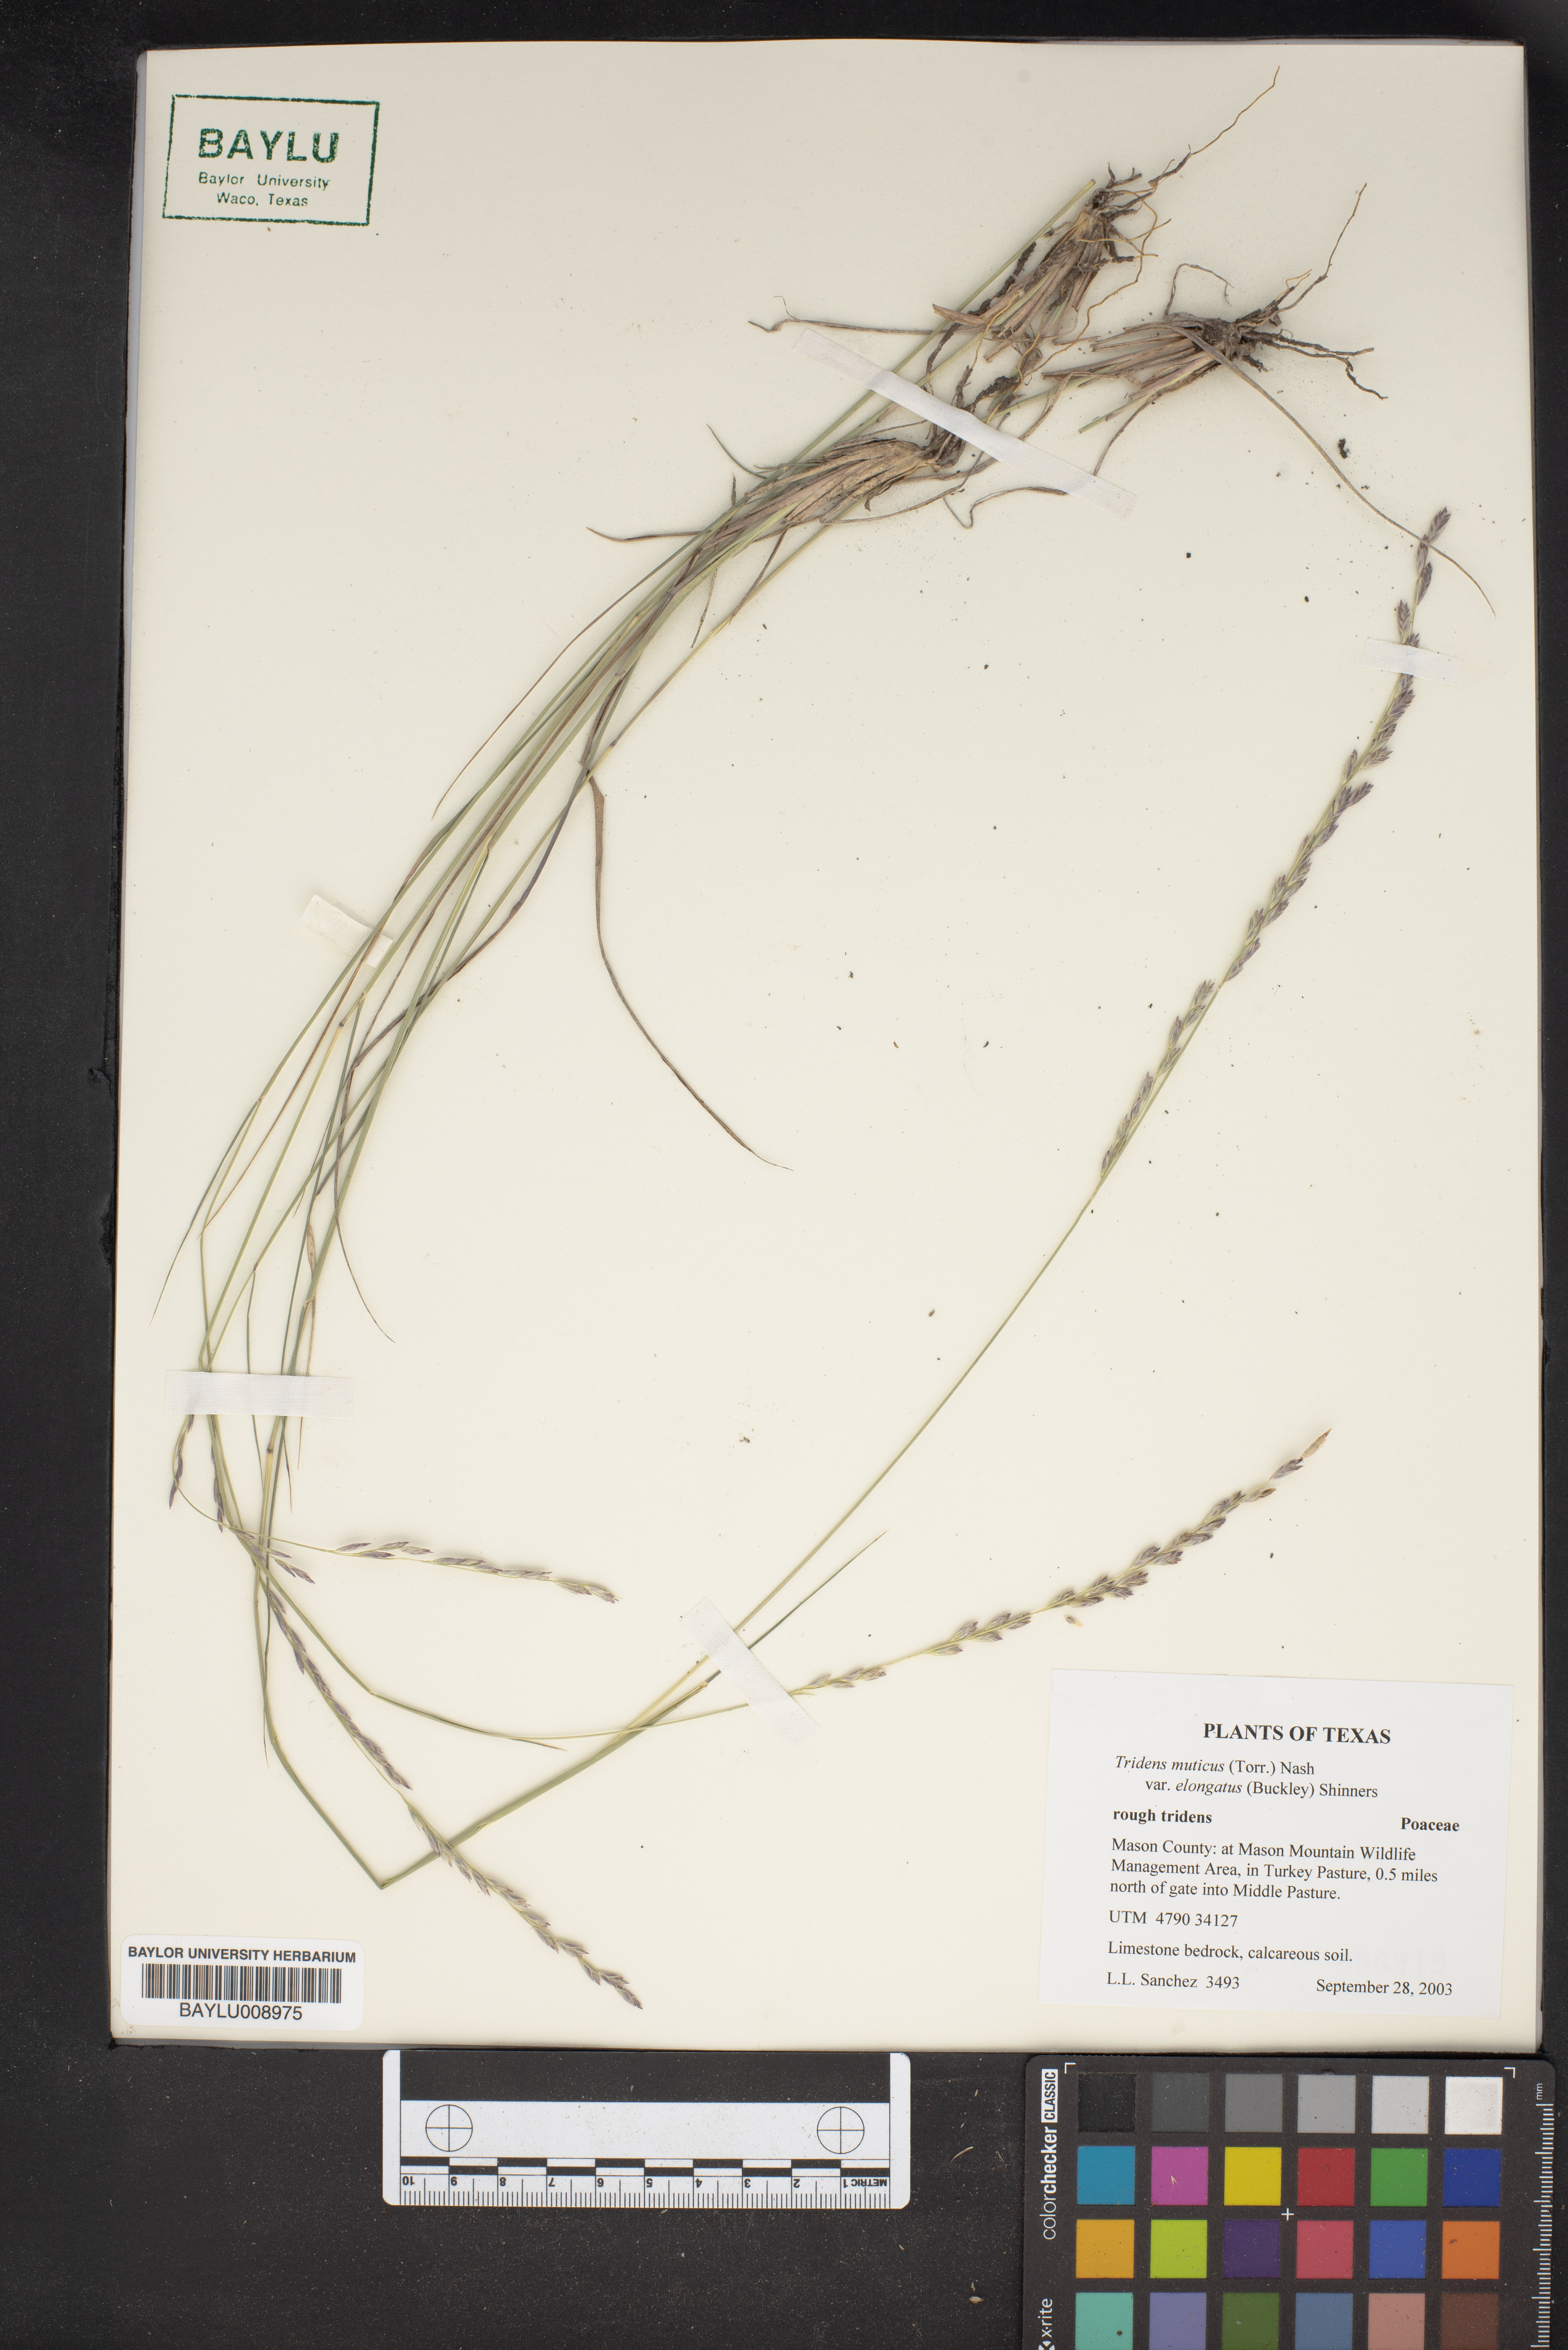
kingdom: Plantae
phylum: Tracheophyta
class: Liliopsida
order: Poales
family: Poaceae
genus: Tridentopsis
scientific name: Tridentopsis mutica
